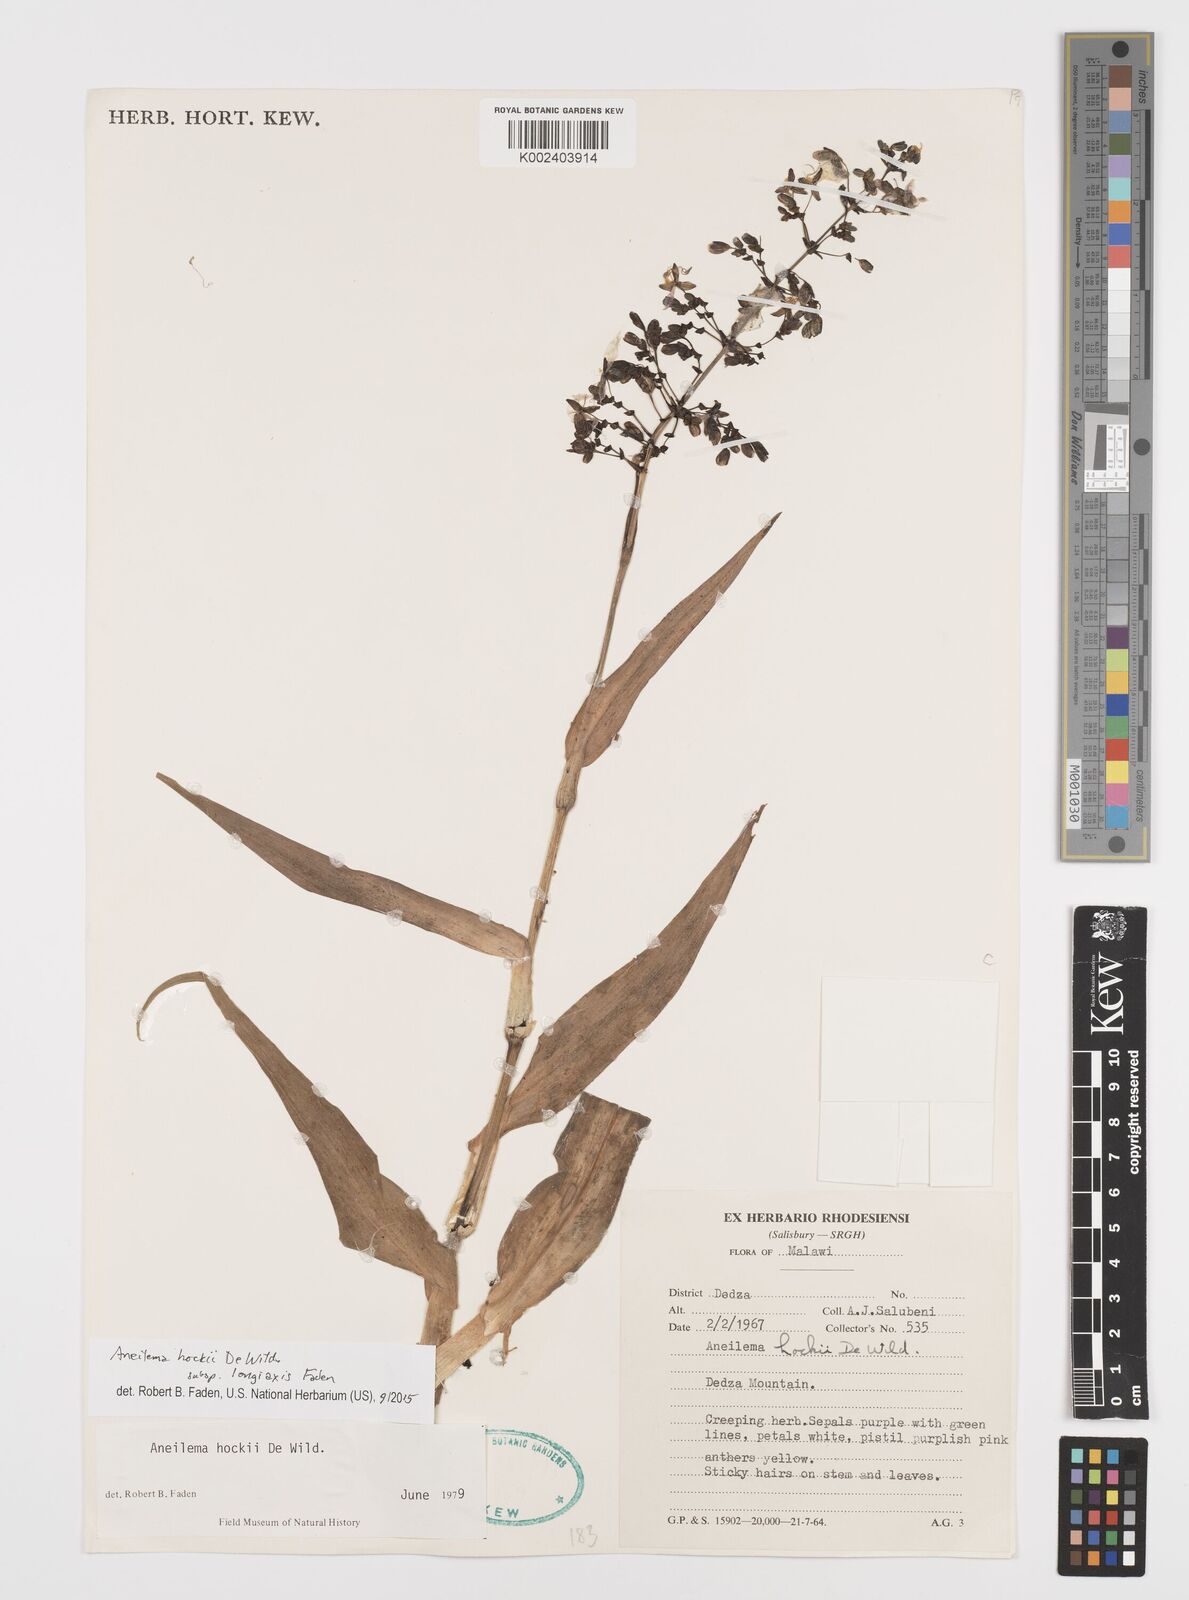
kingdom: Plantae
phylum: Tracheophyta
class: Liliopsida
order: Commelinales
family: Commelinaceae
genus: Aneilema
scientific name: Aneilema hockii
